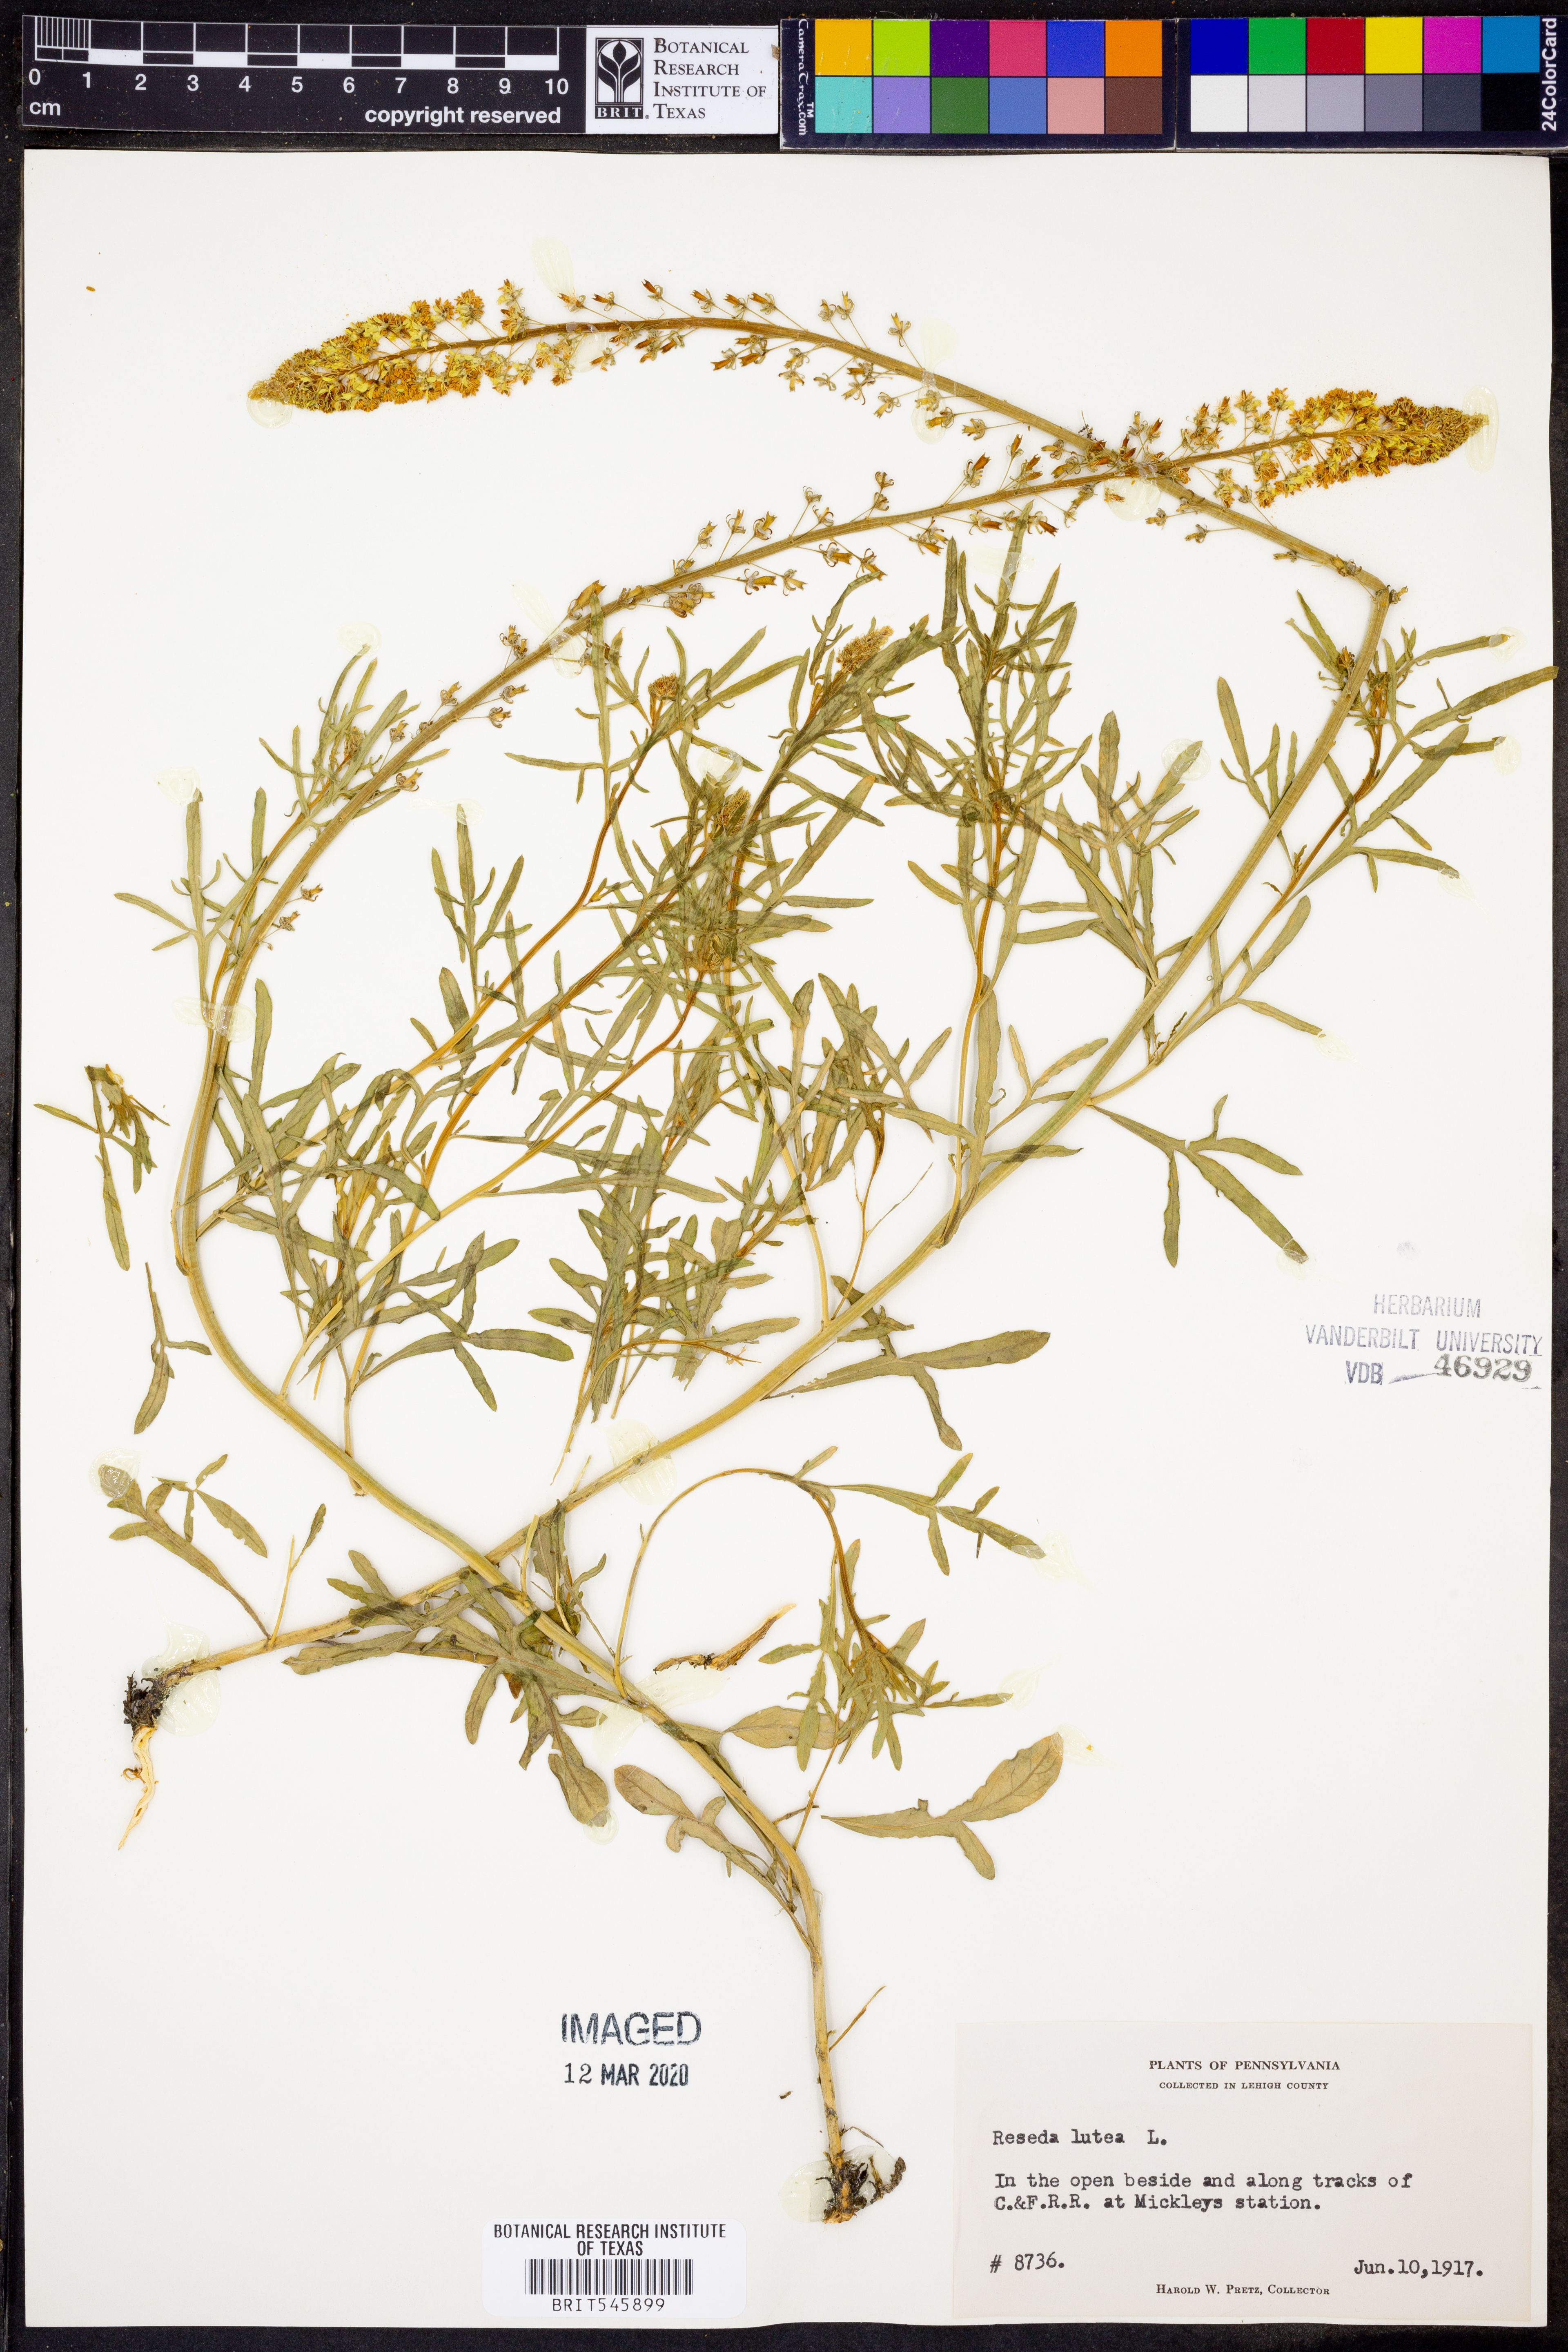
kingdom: Plantae
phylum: Tracheophyta
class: Magnoliopsida
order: Brassicales
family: Resedaceae
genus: Reseda
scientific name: Reseda lutea
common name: Wild mignonette
